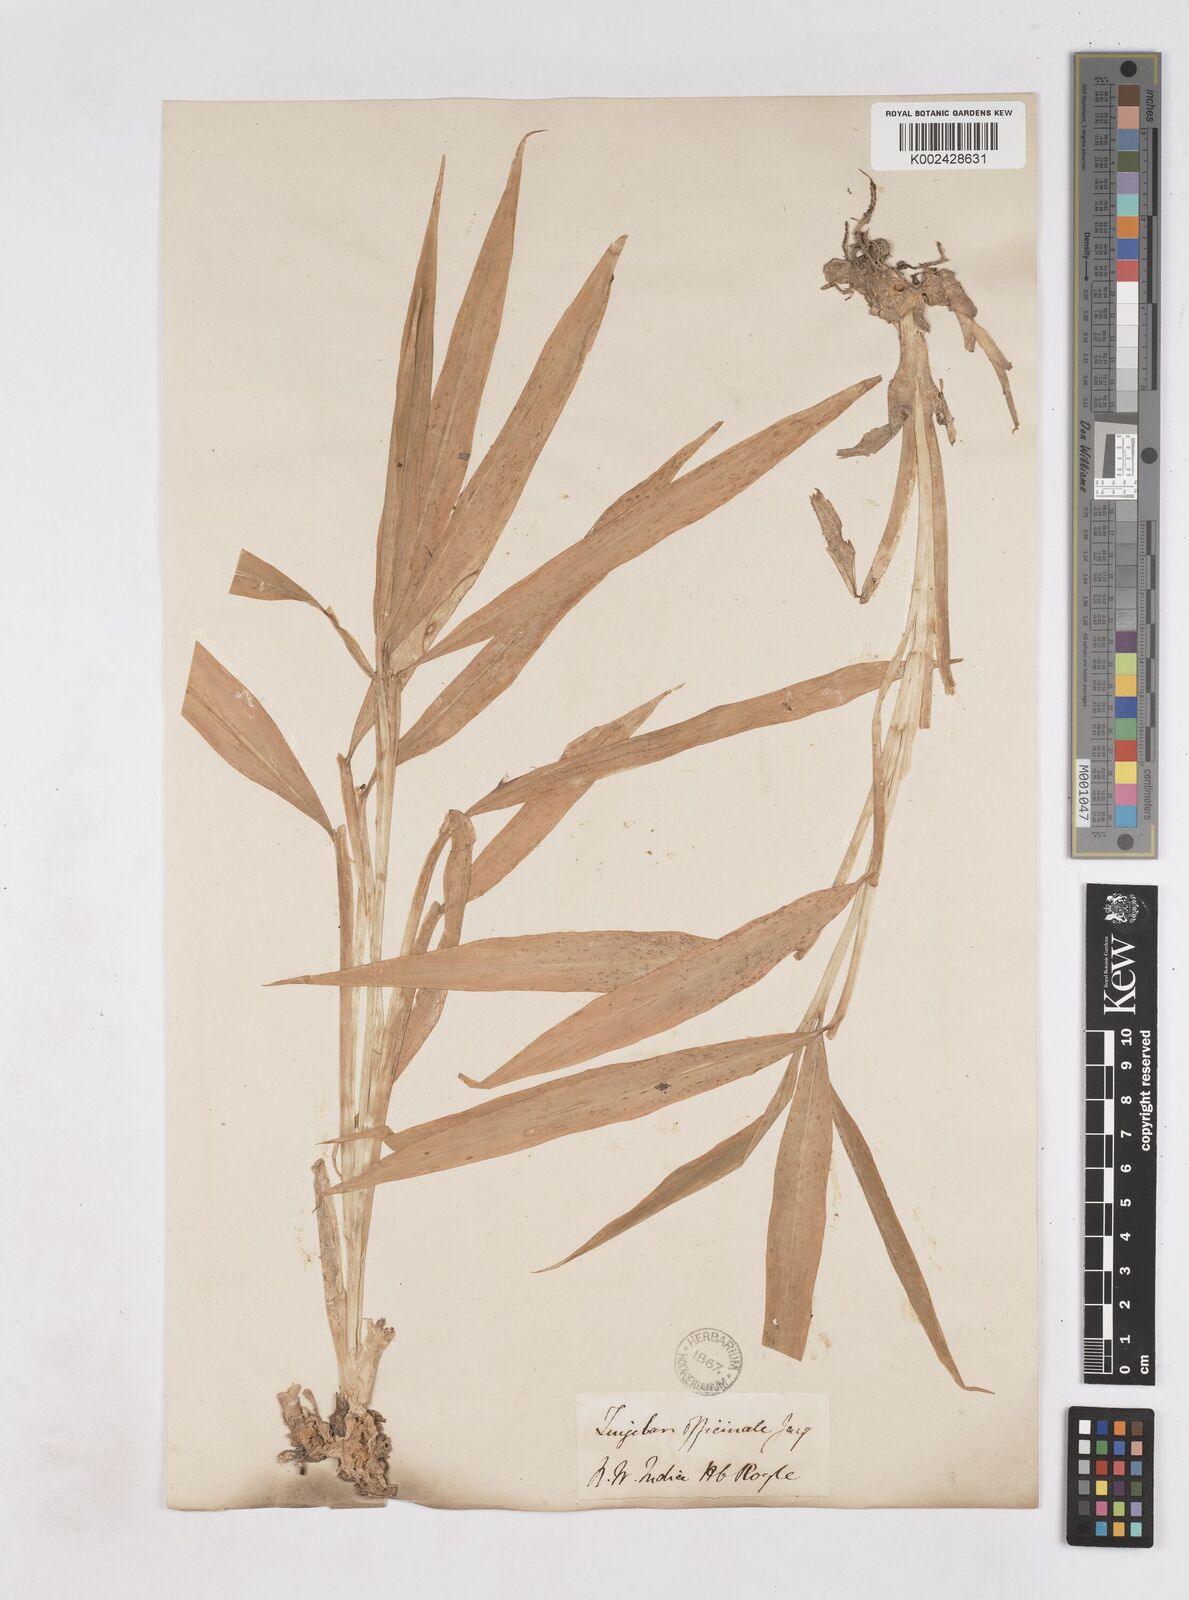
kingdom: Plantae
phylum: Tracheophyta
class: Liliopsida
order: Zingiberales
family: Zingiberaceae
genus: Zingiber
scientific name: Zingiber officinale
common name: Ginger
